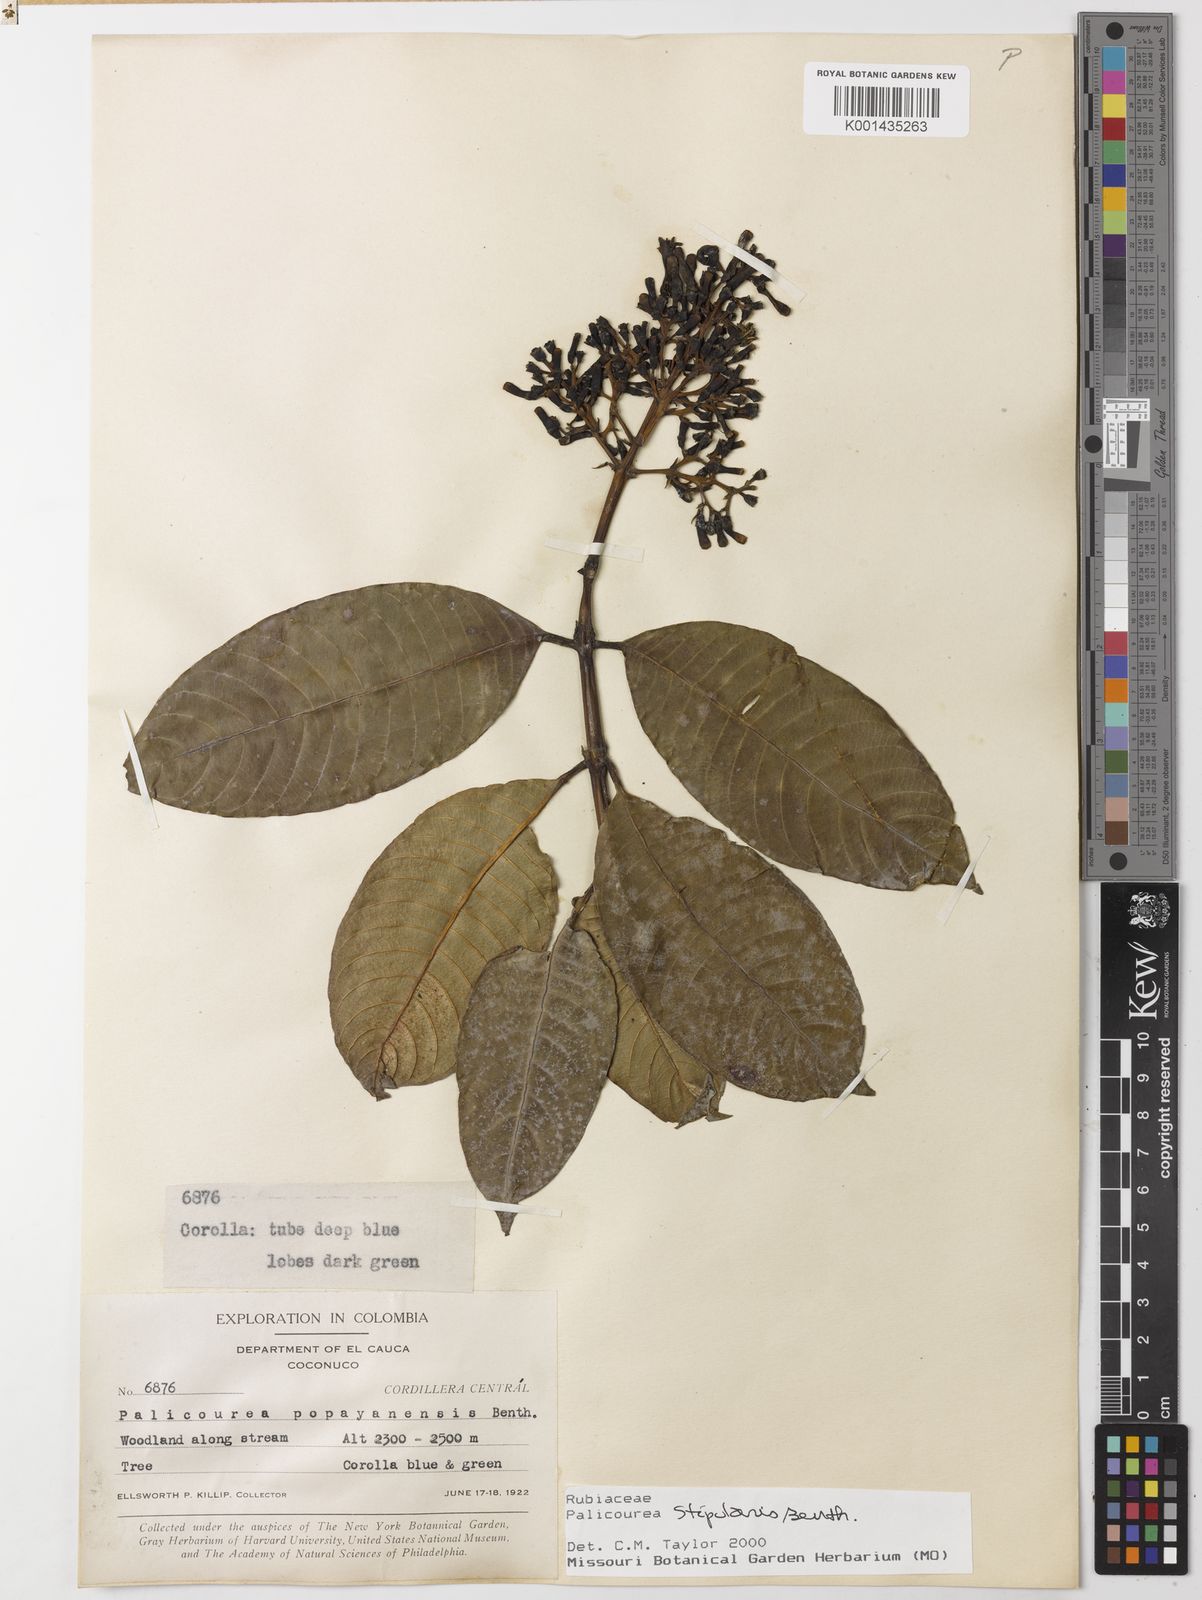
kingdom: Plantae
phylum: Tracheophyta
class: Magnoliopsida
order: Gentianales
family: Rubiaceae
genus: Palicourea
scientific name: Palicourea stipularis
